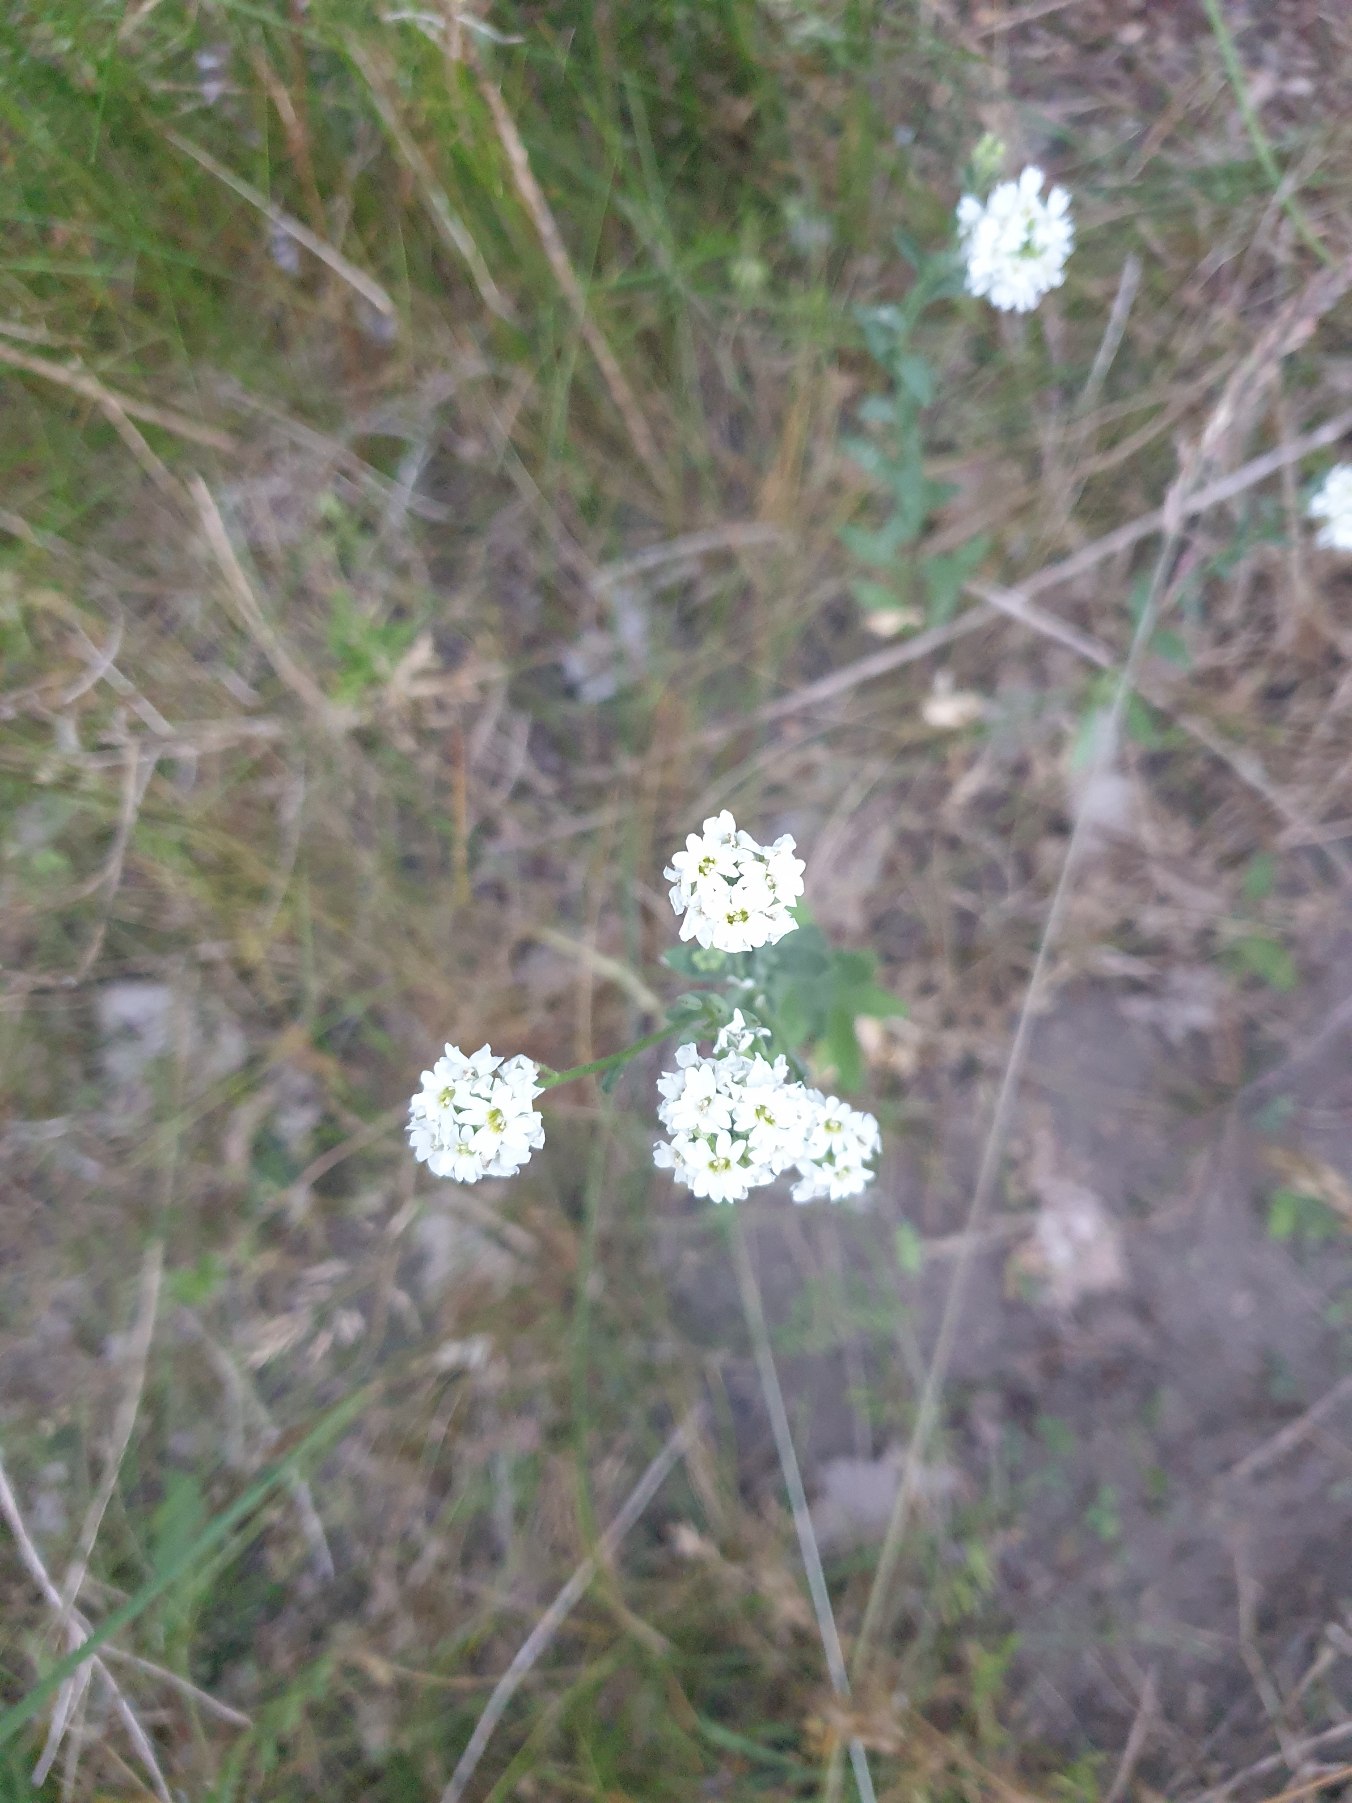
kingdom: Plantae
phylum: Tracheophyta
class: Magnoliopsida
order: Brassicales
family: Brassicaceae
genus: Berteroa
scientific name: Berteroa incana
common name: Kløvplade
